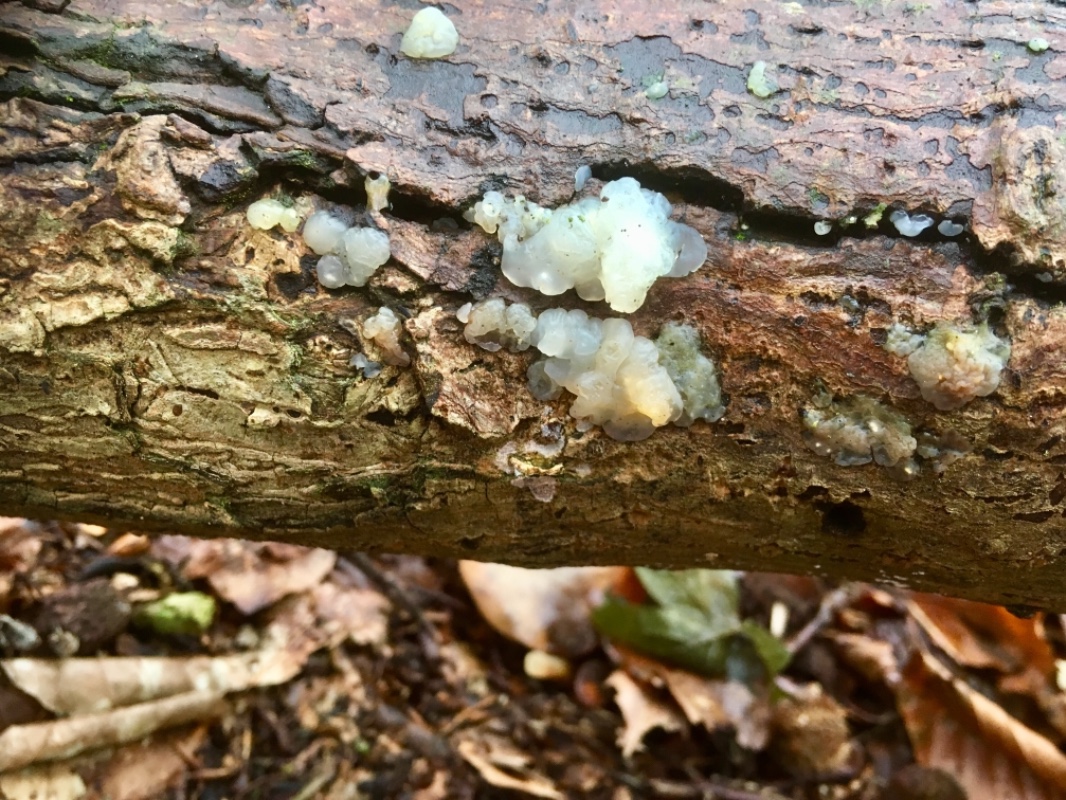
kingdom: Fungi
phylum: Basidiomycota
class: Agaricomycetes
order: Auriculariales
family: Hyaloriaceae
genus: Myxarium
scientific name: Myxarium nucleatum
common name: klar bævretop
